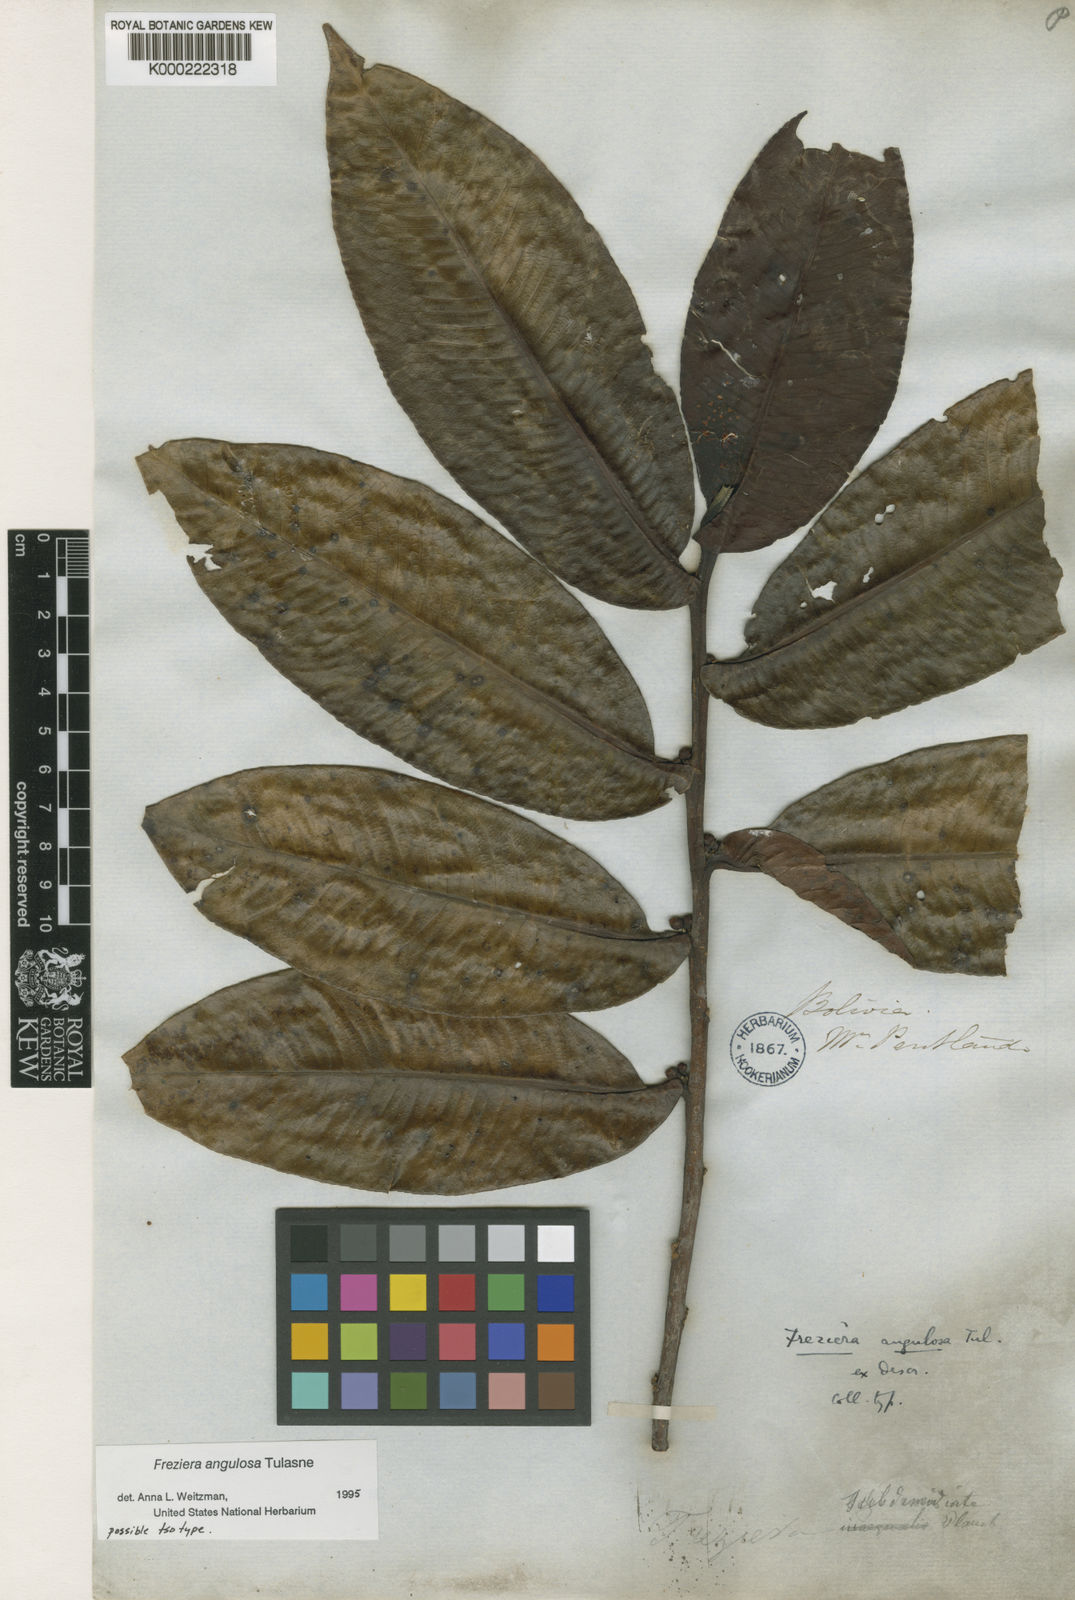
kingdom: Plantae
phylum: Tracheophyta
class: Magnoliopsida
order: Ericales
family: Pentaphylacaceae
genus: Freziera
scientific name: Freziera angulosa
